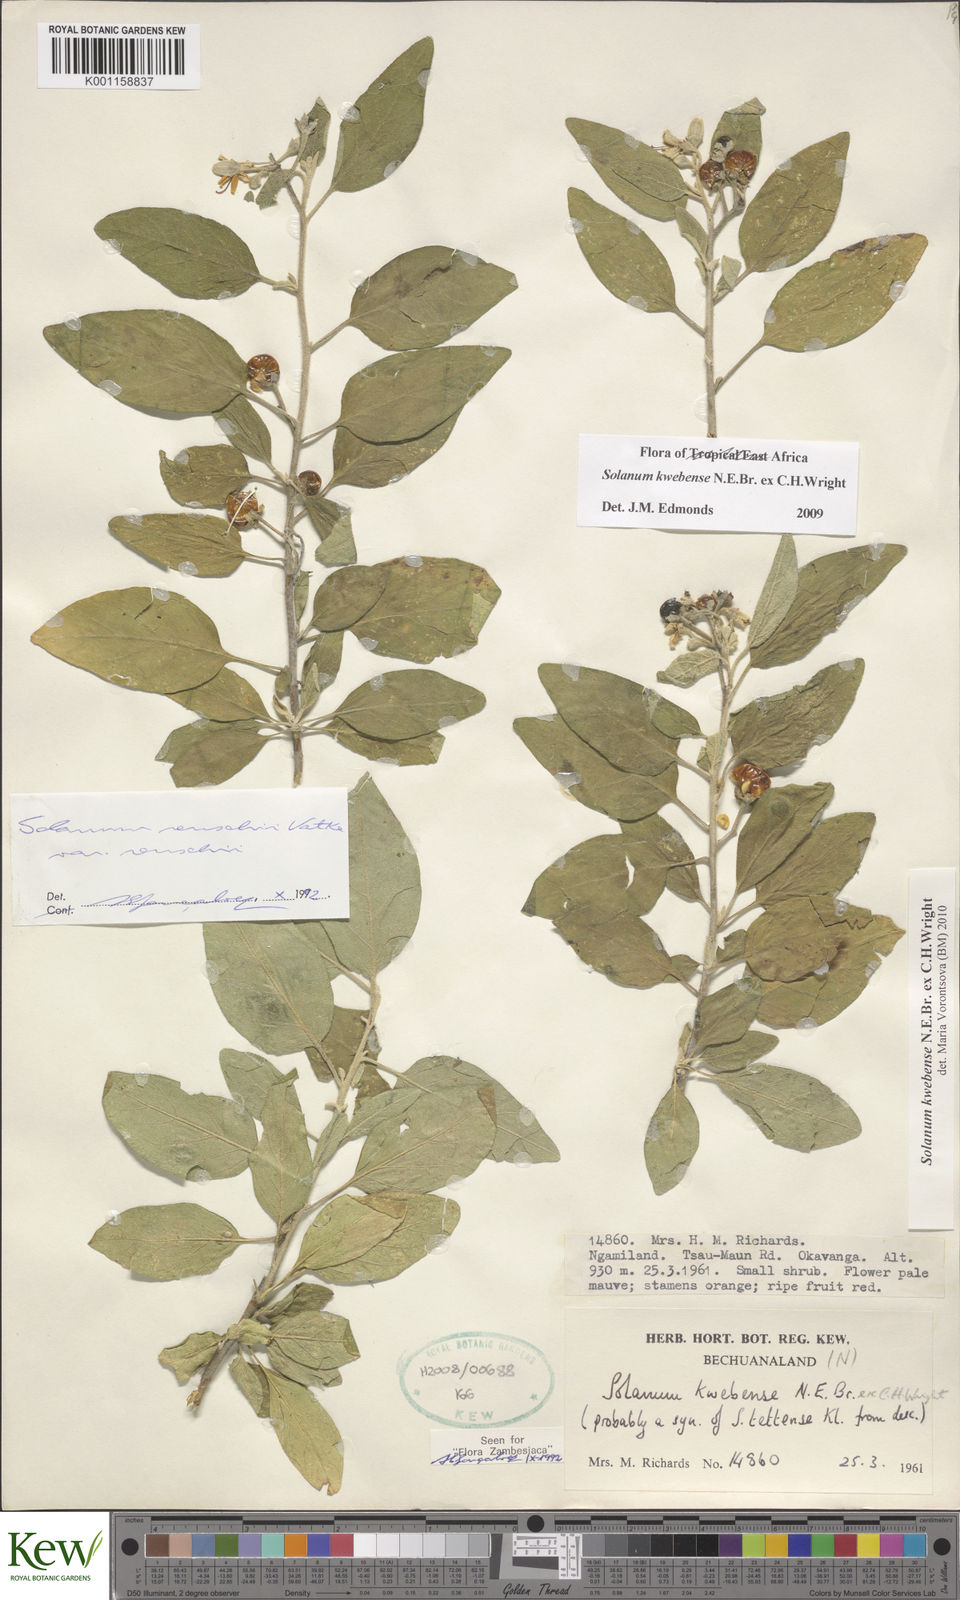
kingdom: Plantae
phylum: Tracheophyta
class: Magnoliopsida
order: Solanales
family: Solanaceae
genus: Solanum
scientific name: Solanum tettense
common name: Mozambique bitter apple
